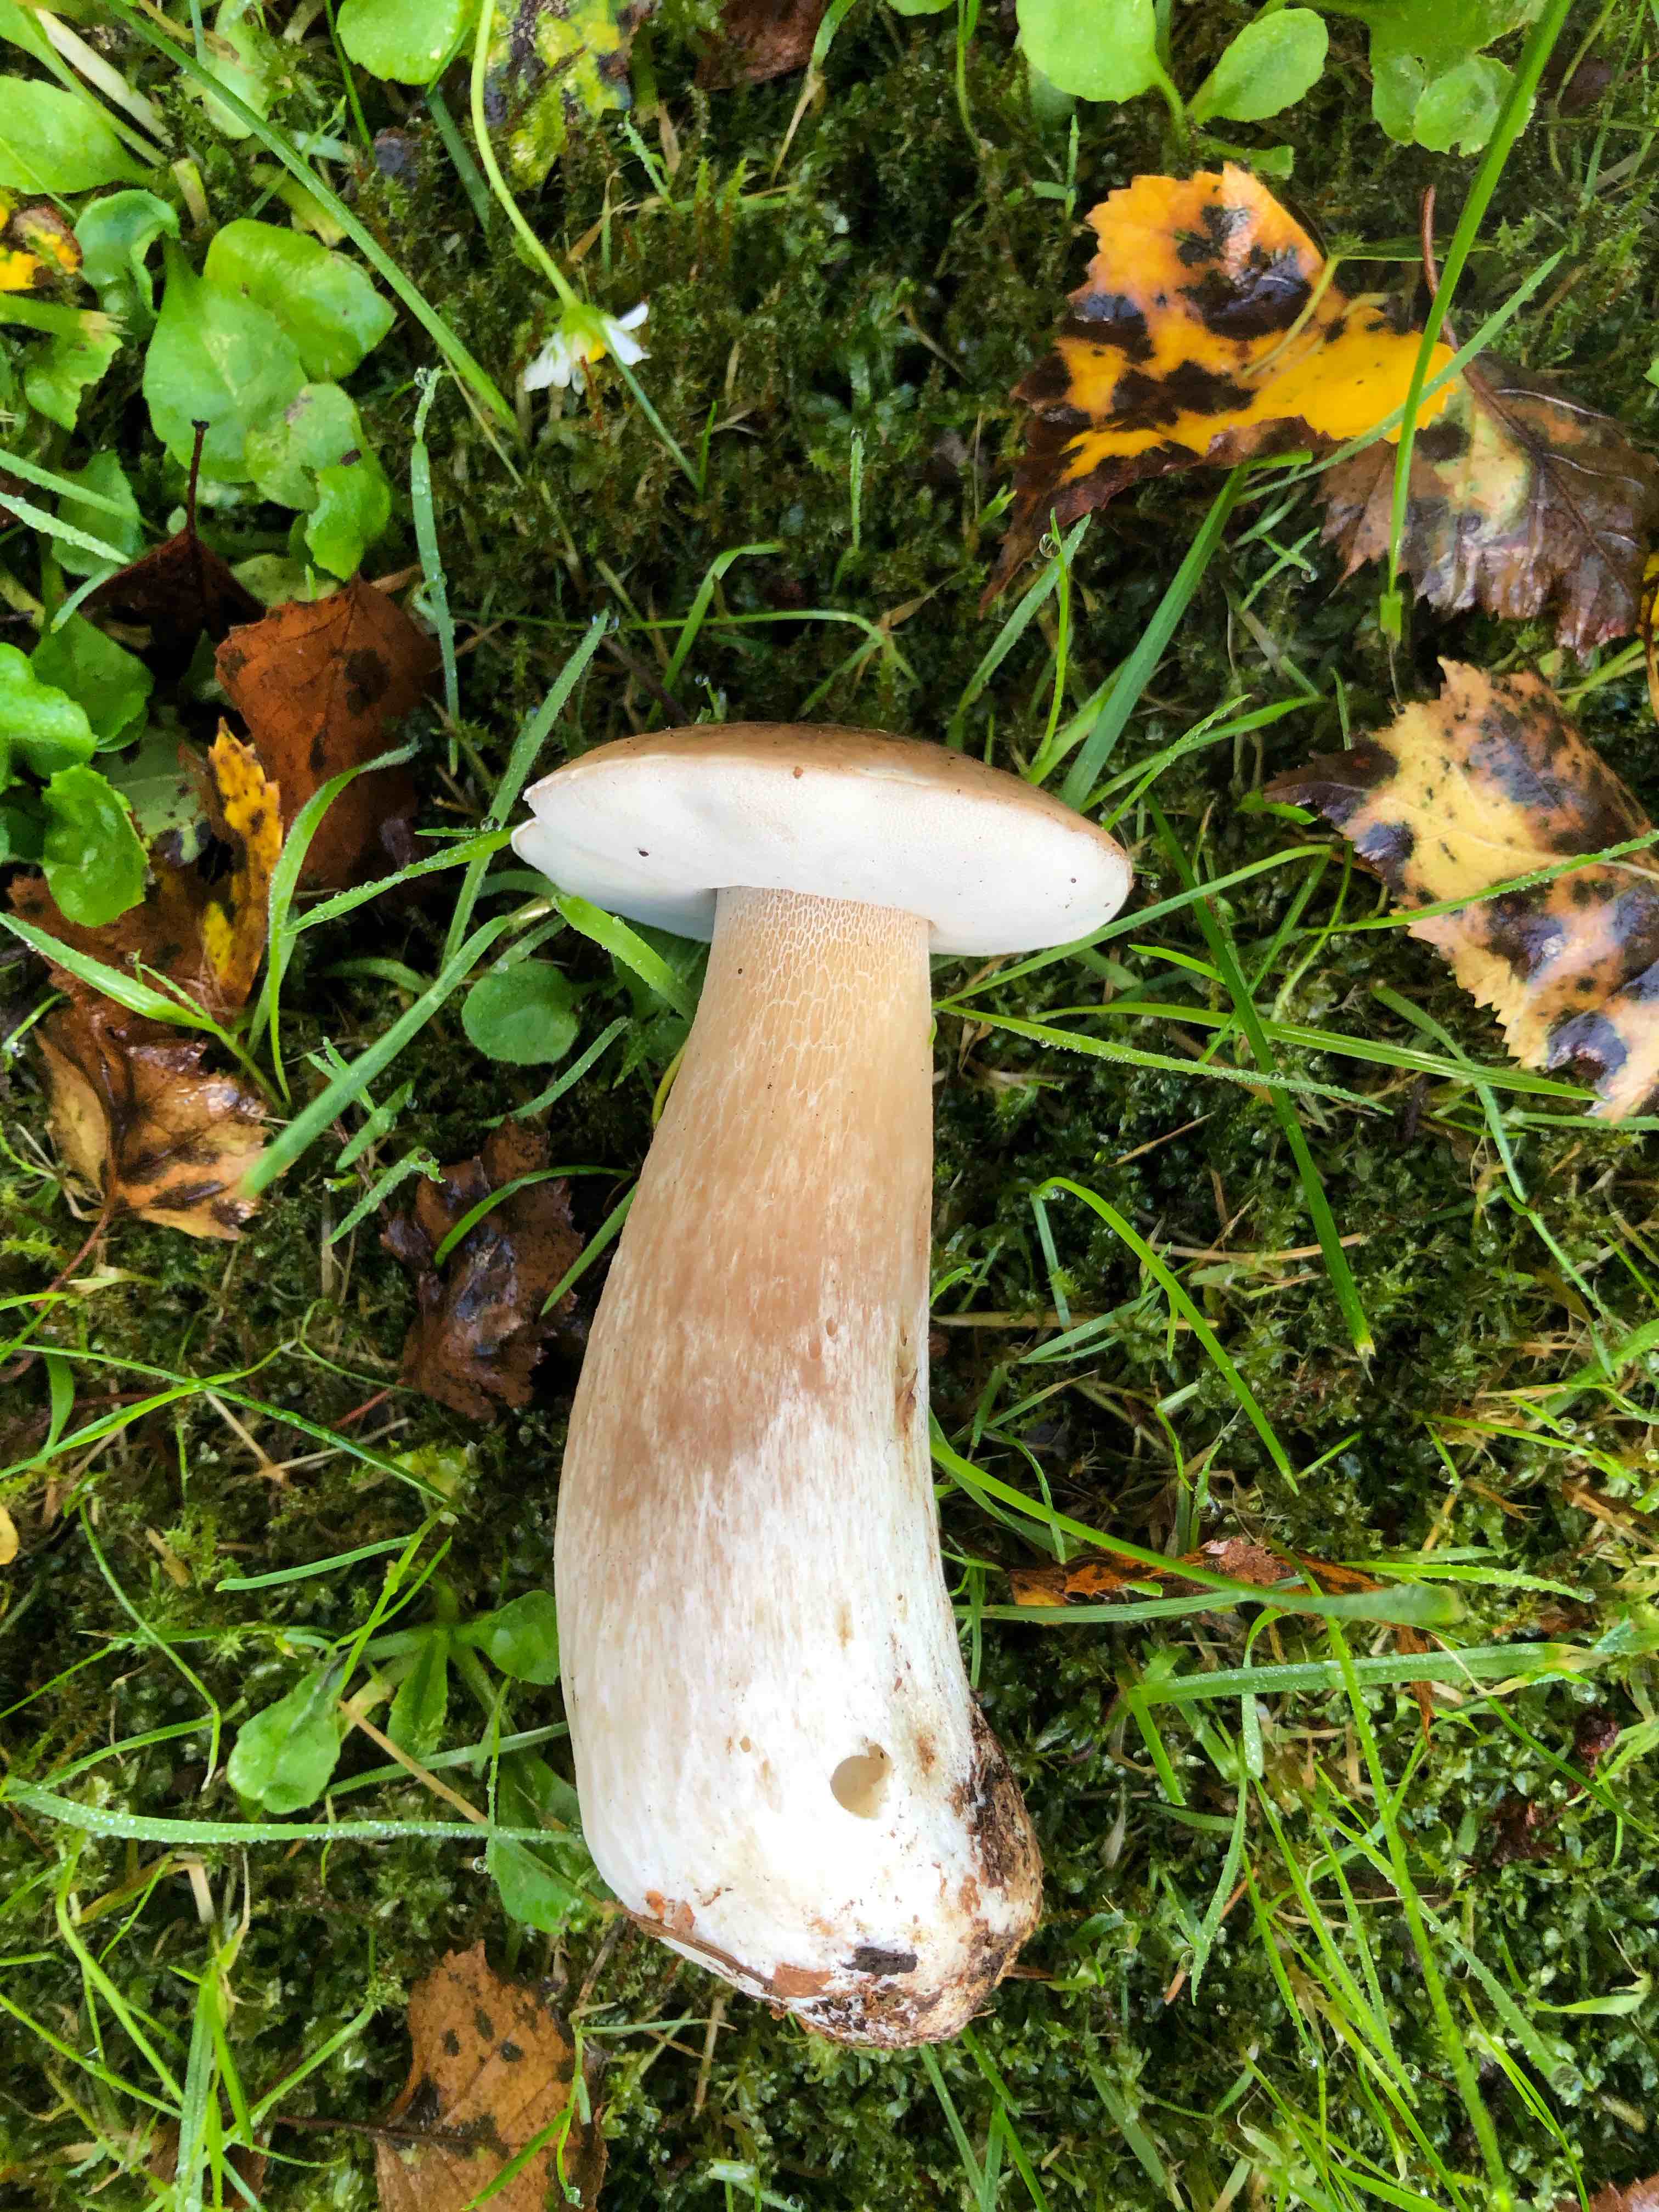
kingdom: Fungi
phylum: Basidiomycota
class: Agaricomycetes
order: Boletales
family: Boletaceae
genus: Boletus
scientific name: Boletus edulis
